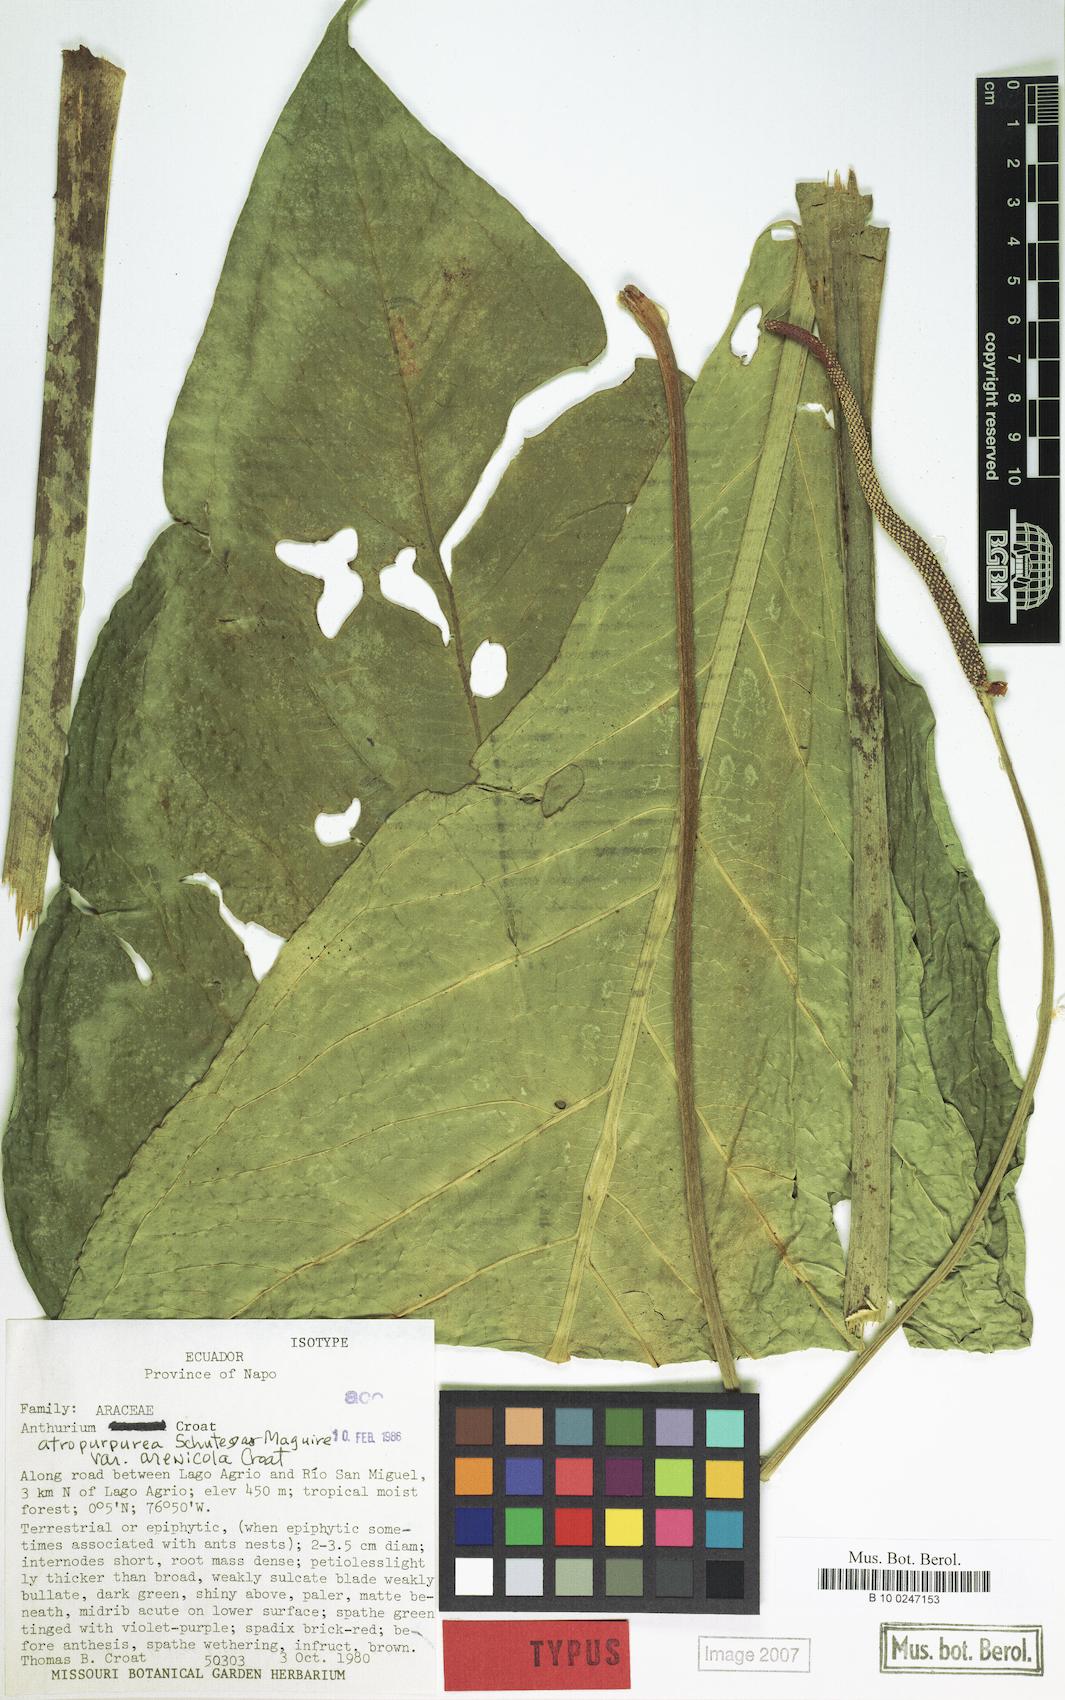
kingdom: Plantae
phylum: Tracheophyta
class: Liliopsida
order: Alismatales
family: Araceae
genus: Anthurium
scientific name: Anthurium atropurpureum
